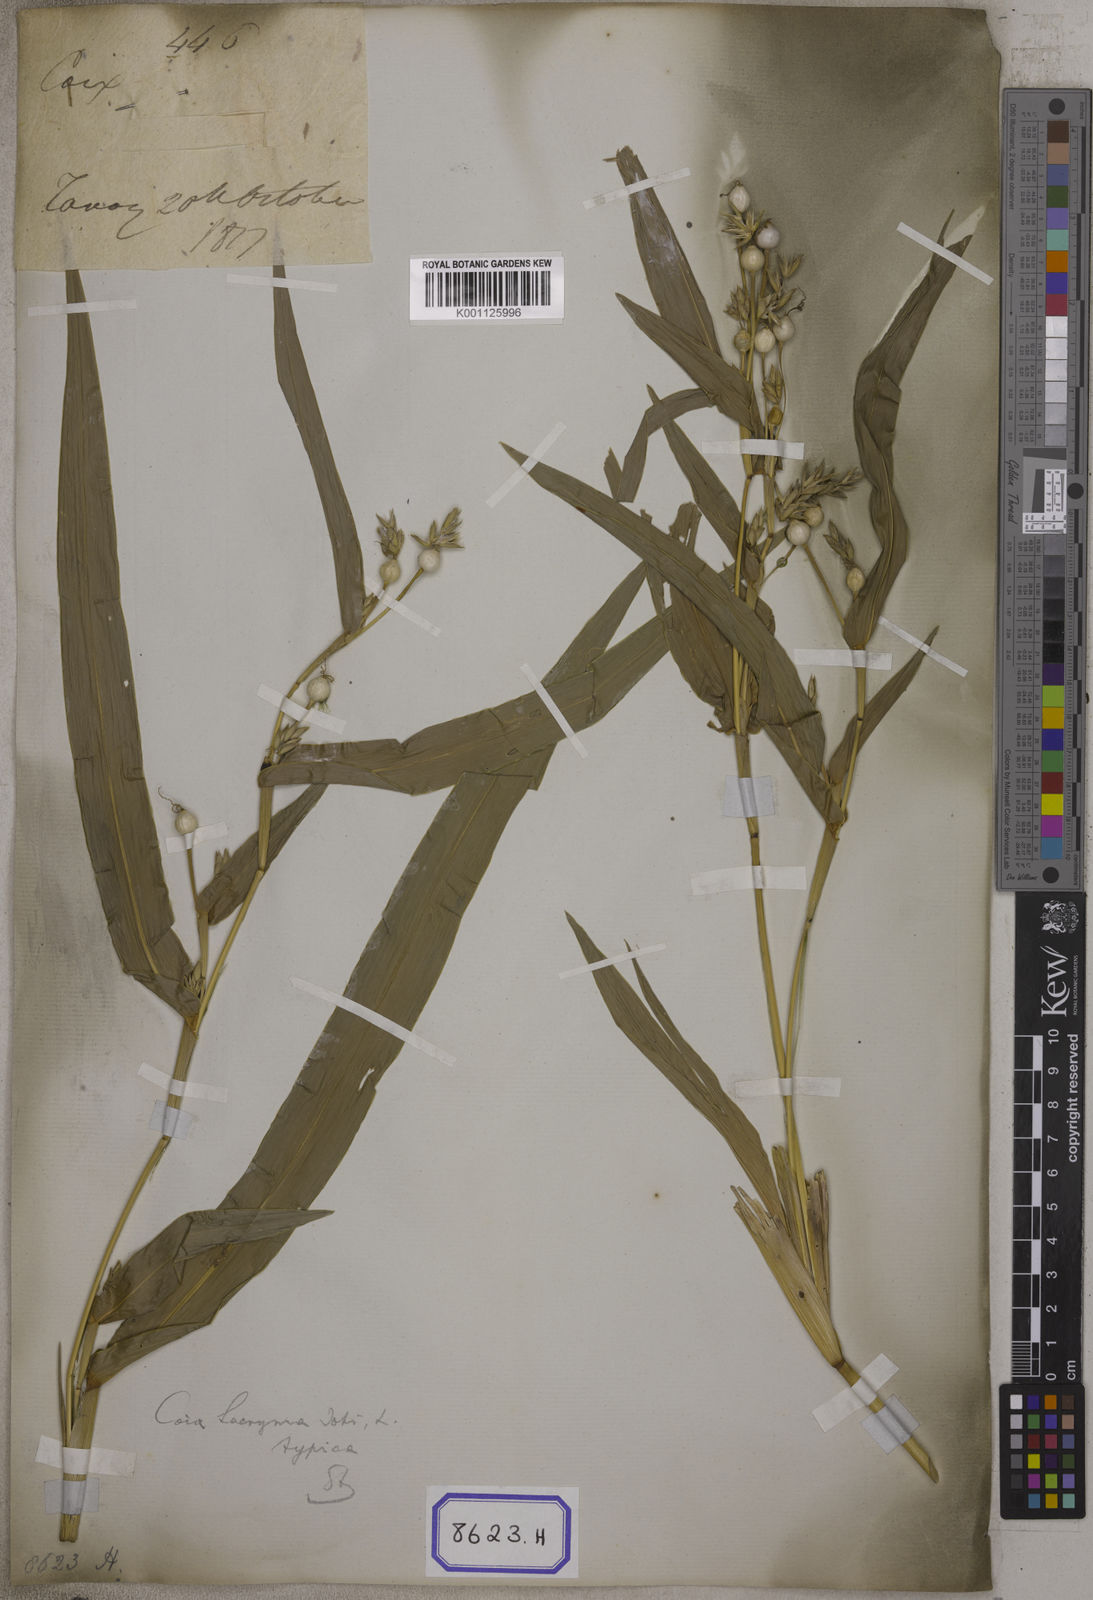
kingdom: Plantae
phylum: Tracheophyta
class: Liliopsida
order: Poales
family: Poaceae
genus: Coix
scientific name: Coix lacryma-jobi
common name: Job's tears
